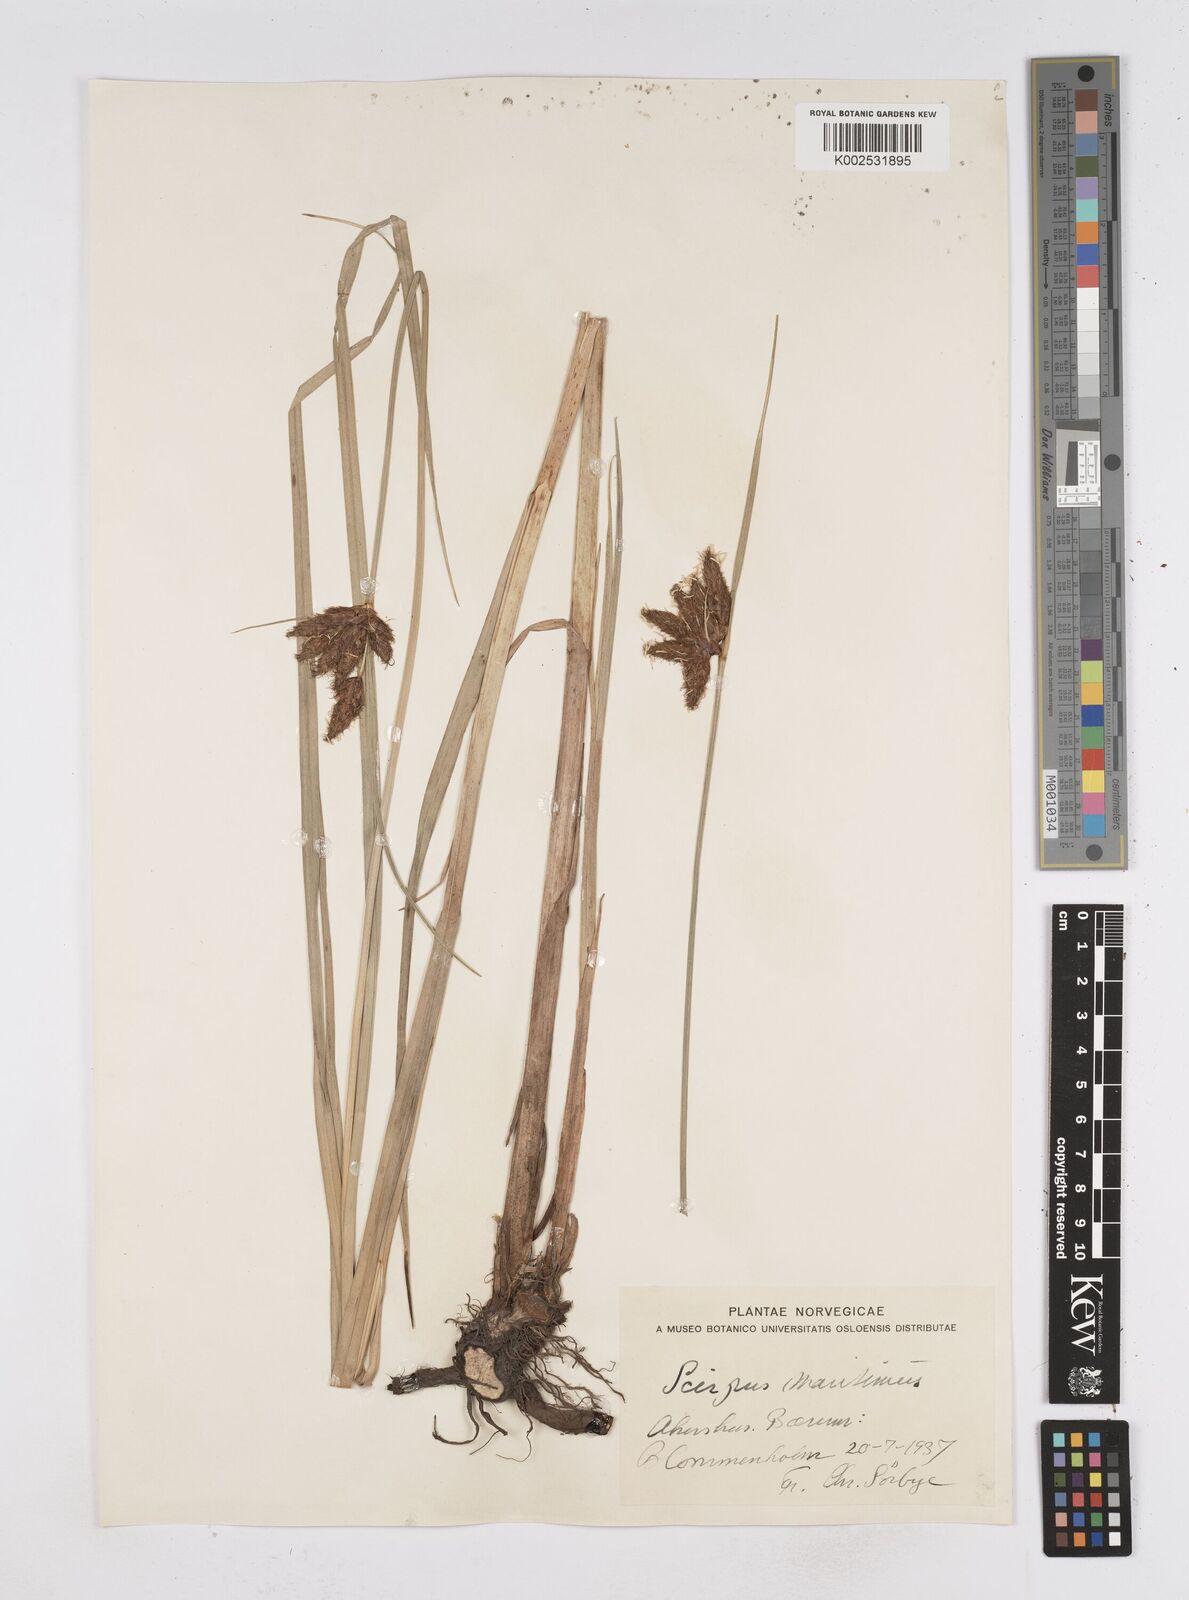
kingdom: Plantae
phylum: Tracheophyta
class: Liliopsida
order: Poales
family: Cyperaceae
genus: Bolboschoenus
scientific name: Bolboschoenus maritimus
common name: Sea club-rush
